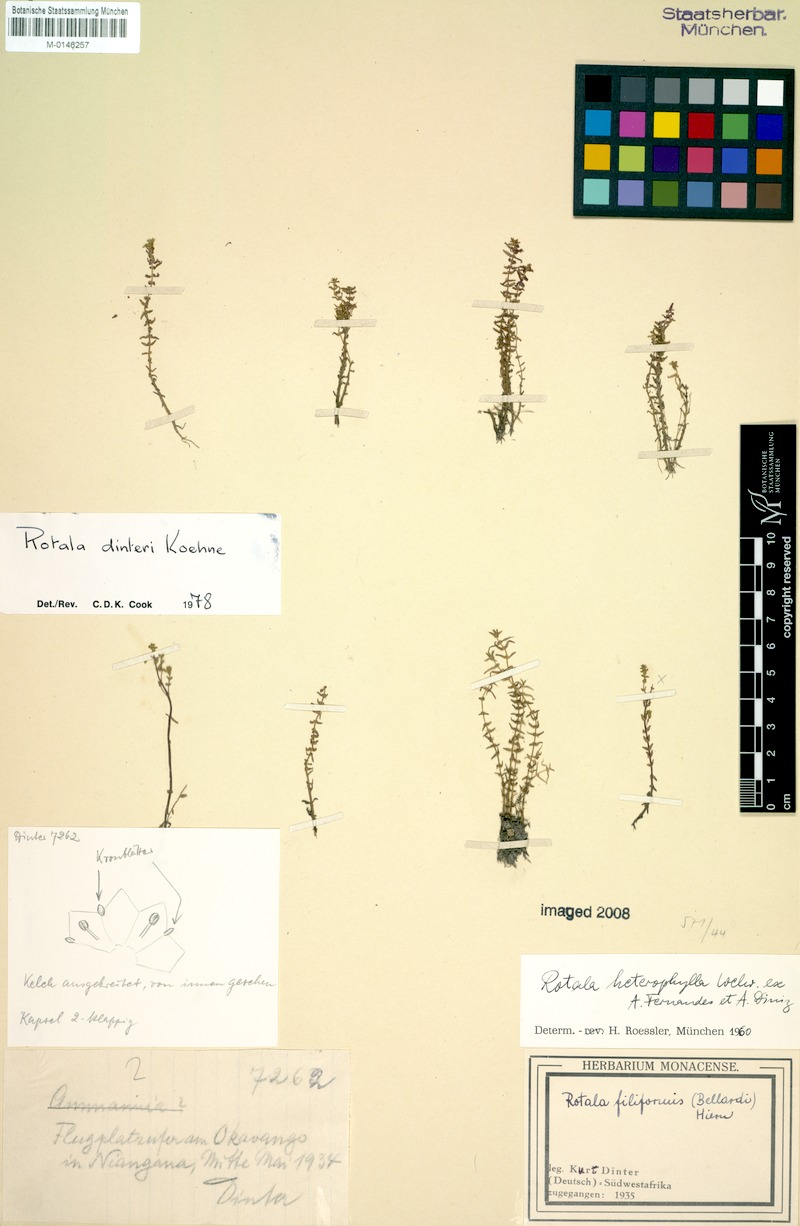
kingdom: Plantae
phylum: Tracheophyta
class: Magnoliopsida
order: Myrtales
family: Lythraceae
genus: Rotala
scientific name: Rotala dinteri
